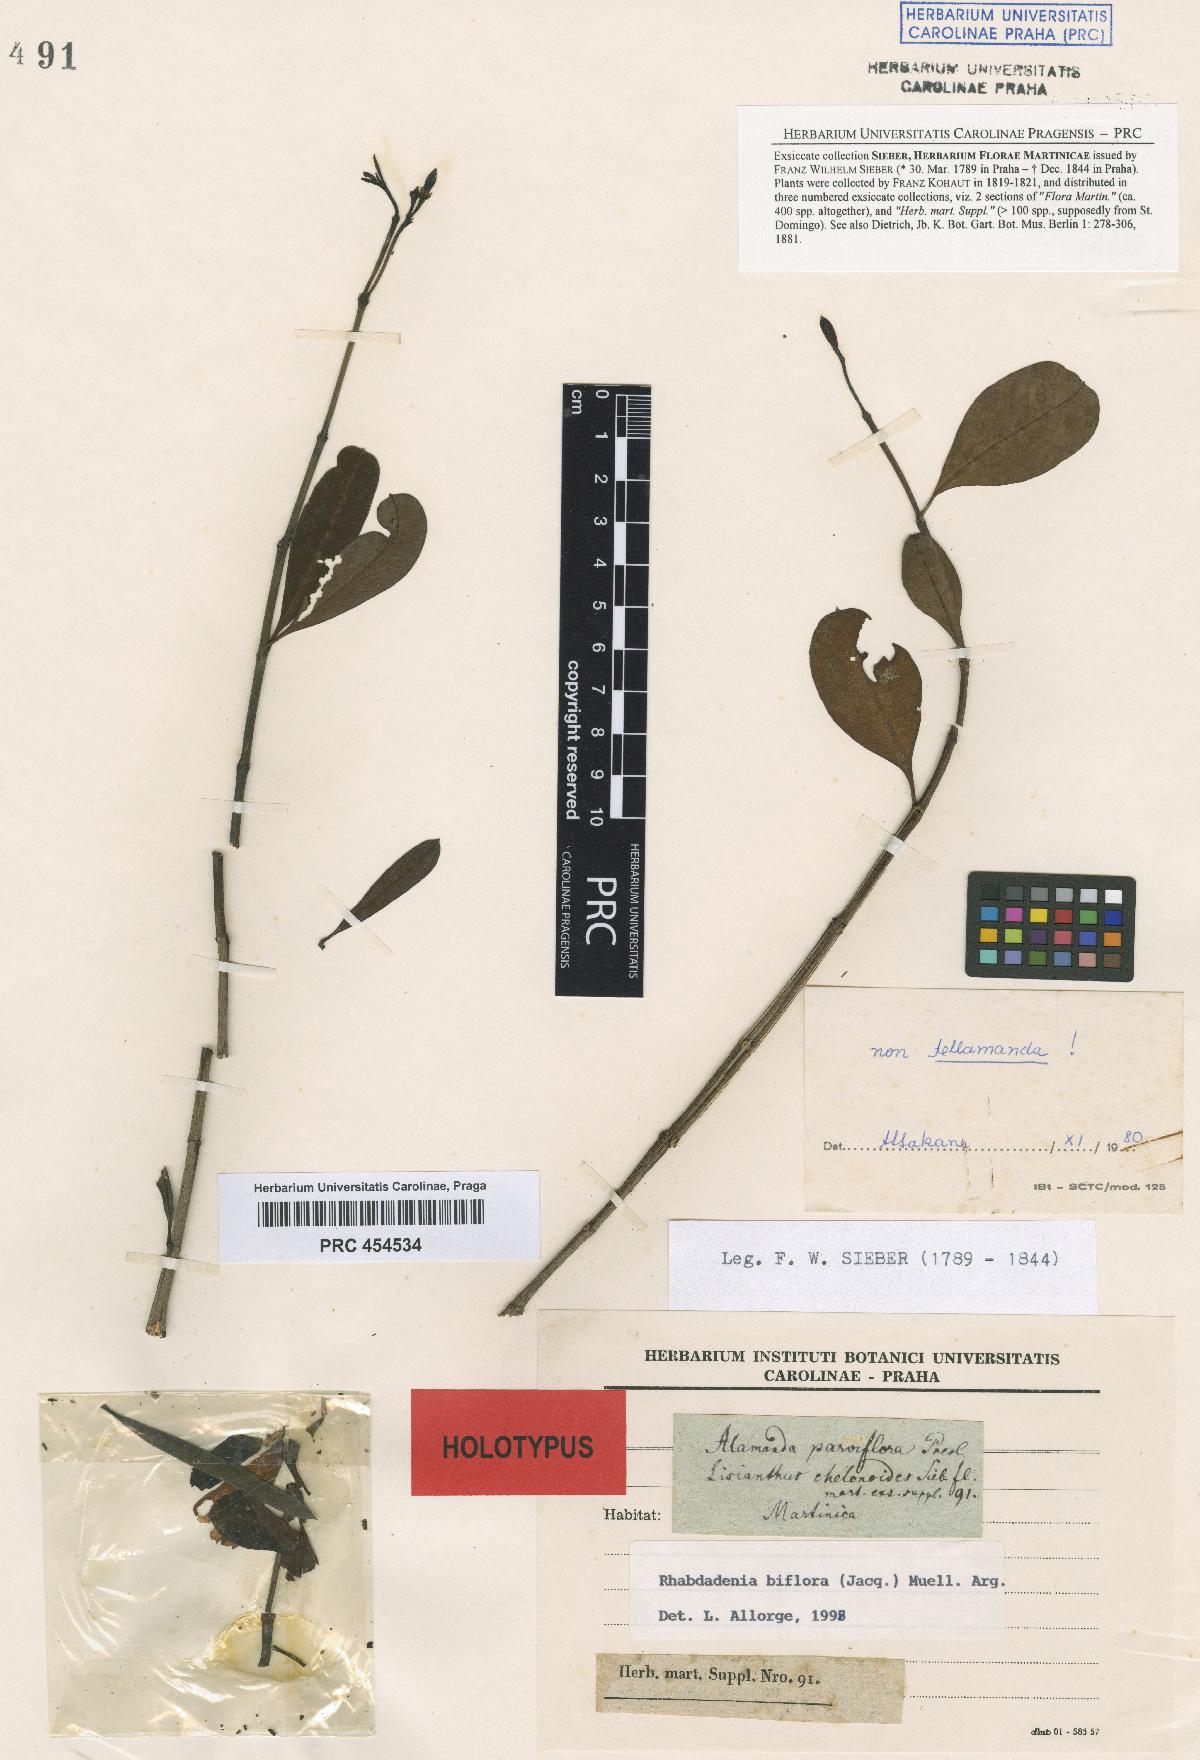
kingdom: Plantae
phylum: Tracheophyta
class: Magnoliopsida
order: Gentianales
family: Gentianaceae
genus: Chelonanthus
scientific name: Chelonanthus grandiflorus
